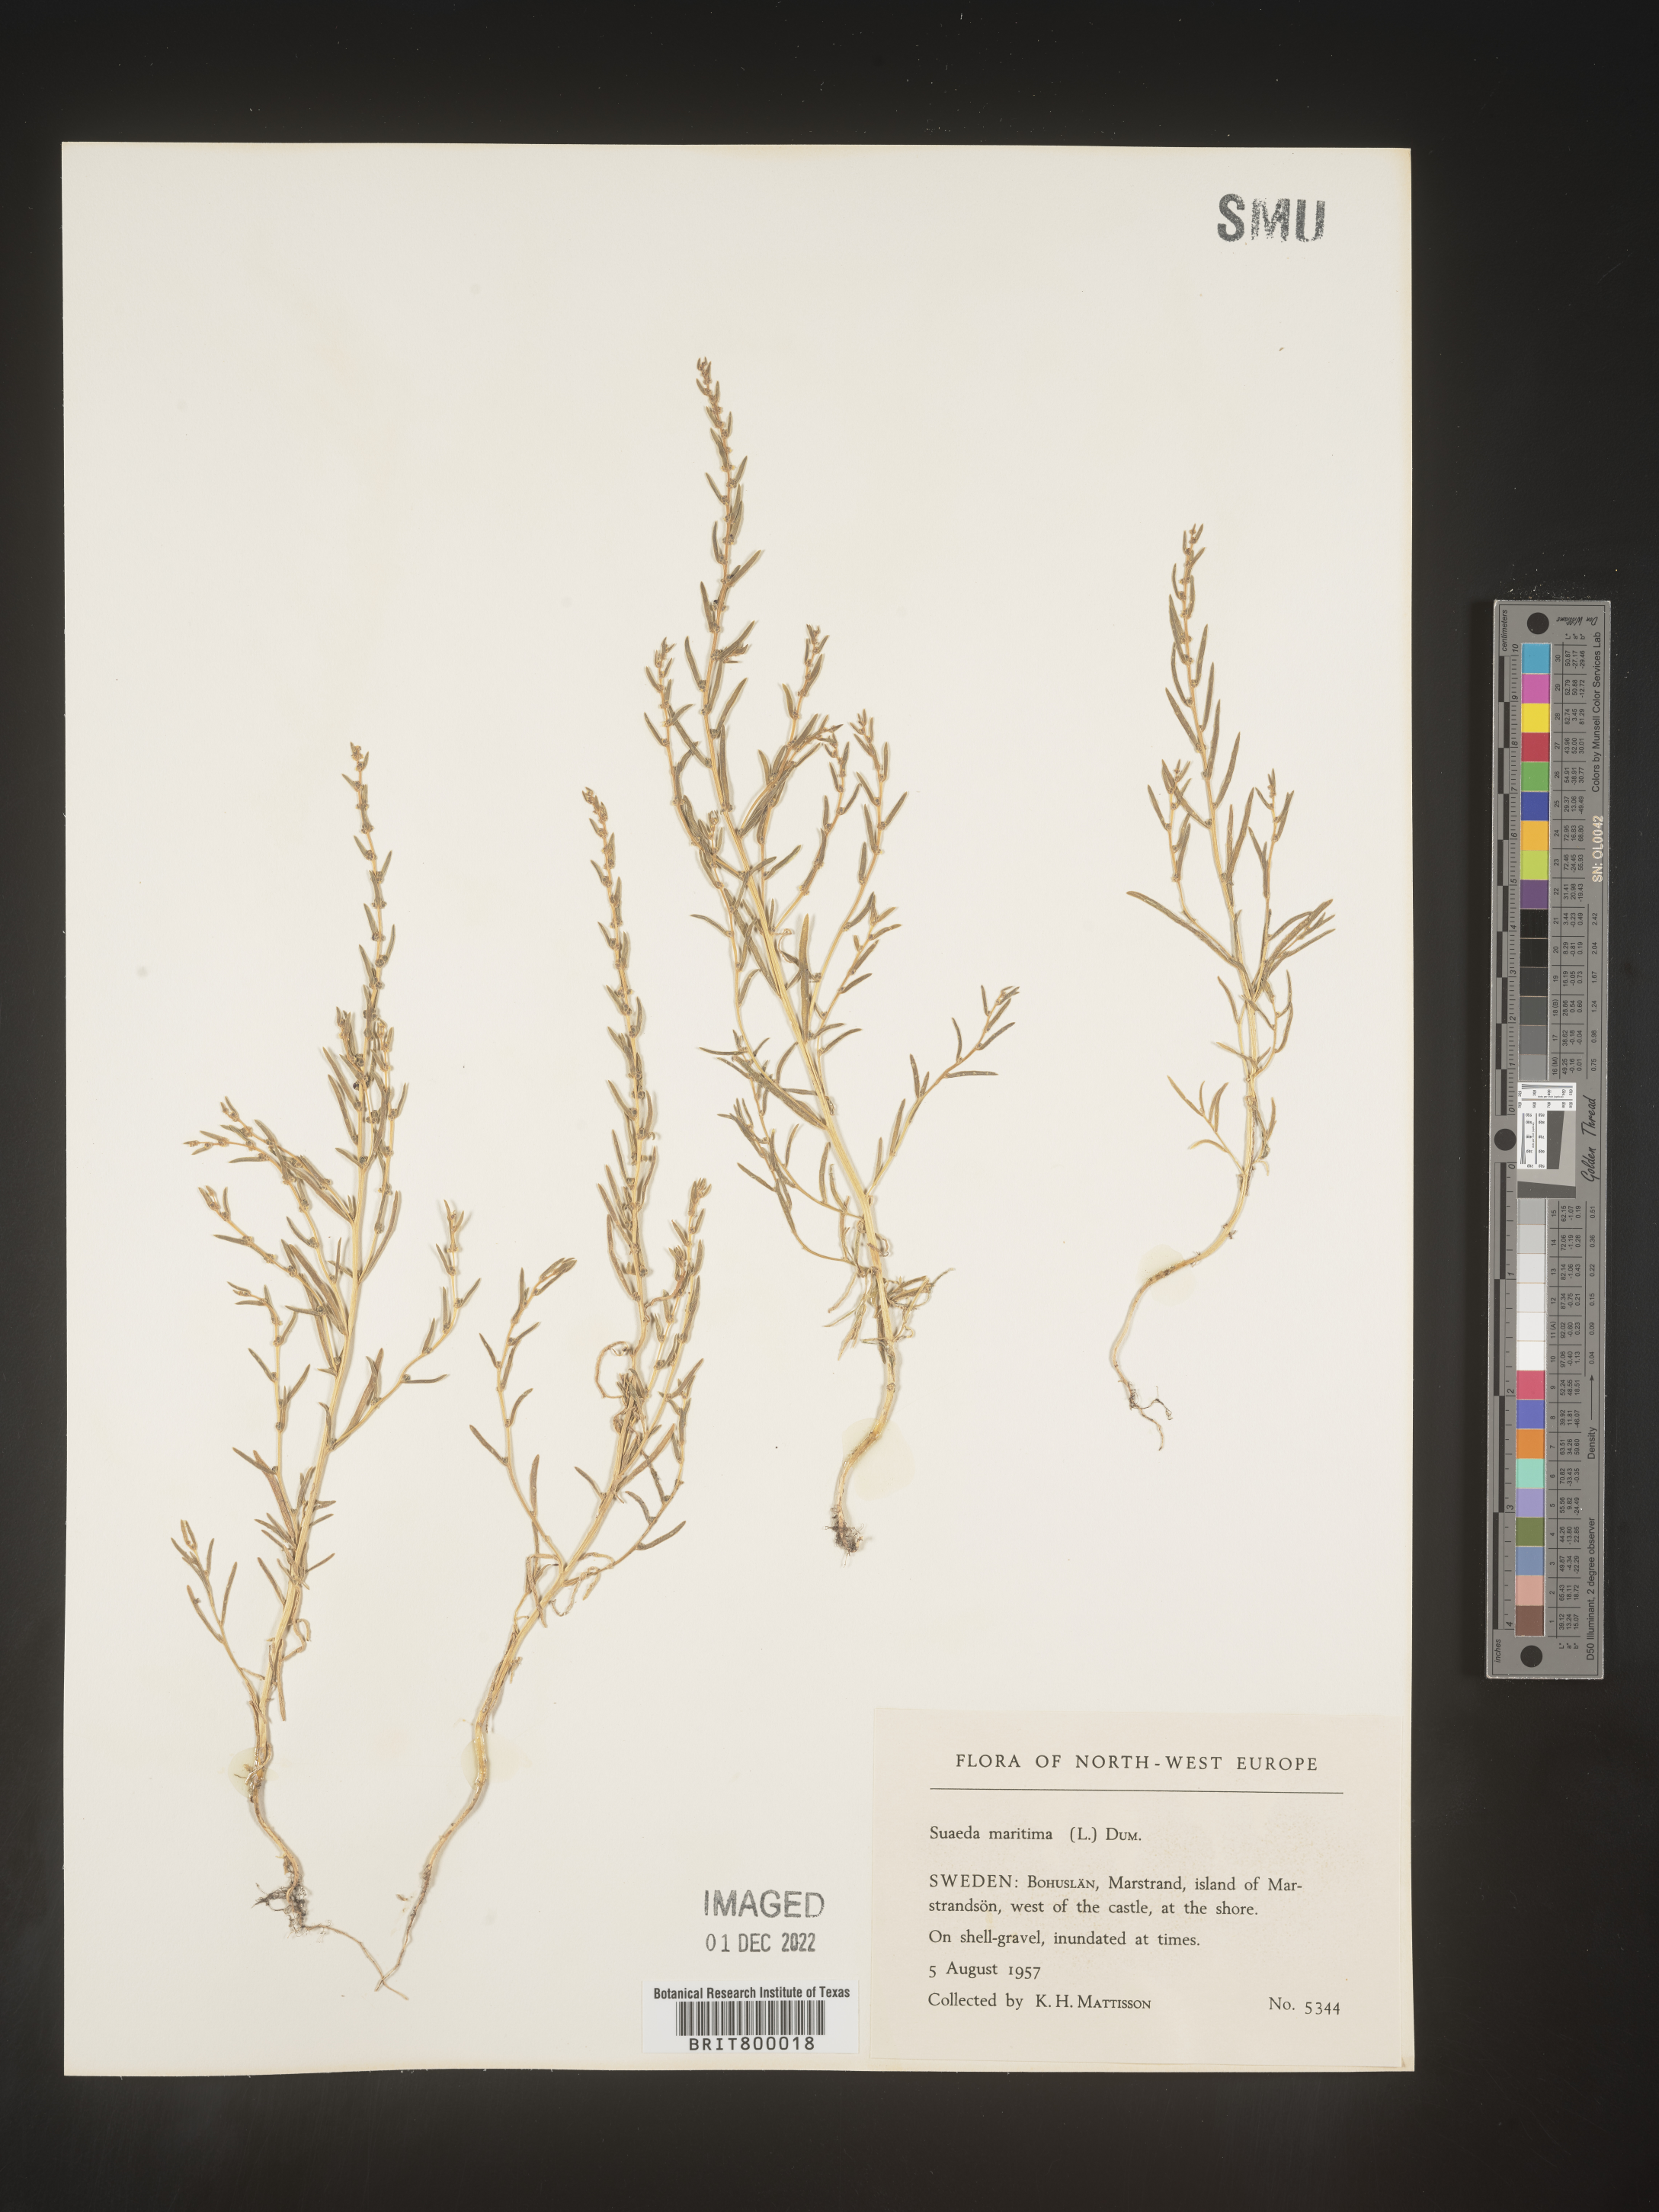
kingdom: Plantae
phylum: Tracheophyta
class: Magnoliopsida
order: Caryophyllales
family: Amaranthaceae
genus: Suaeda
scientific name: Suaeda
